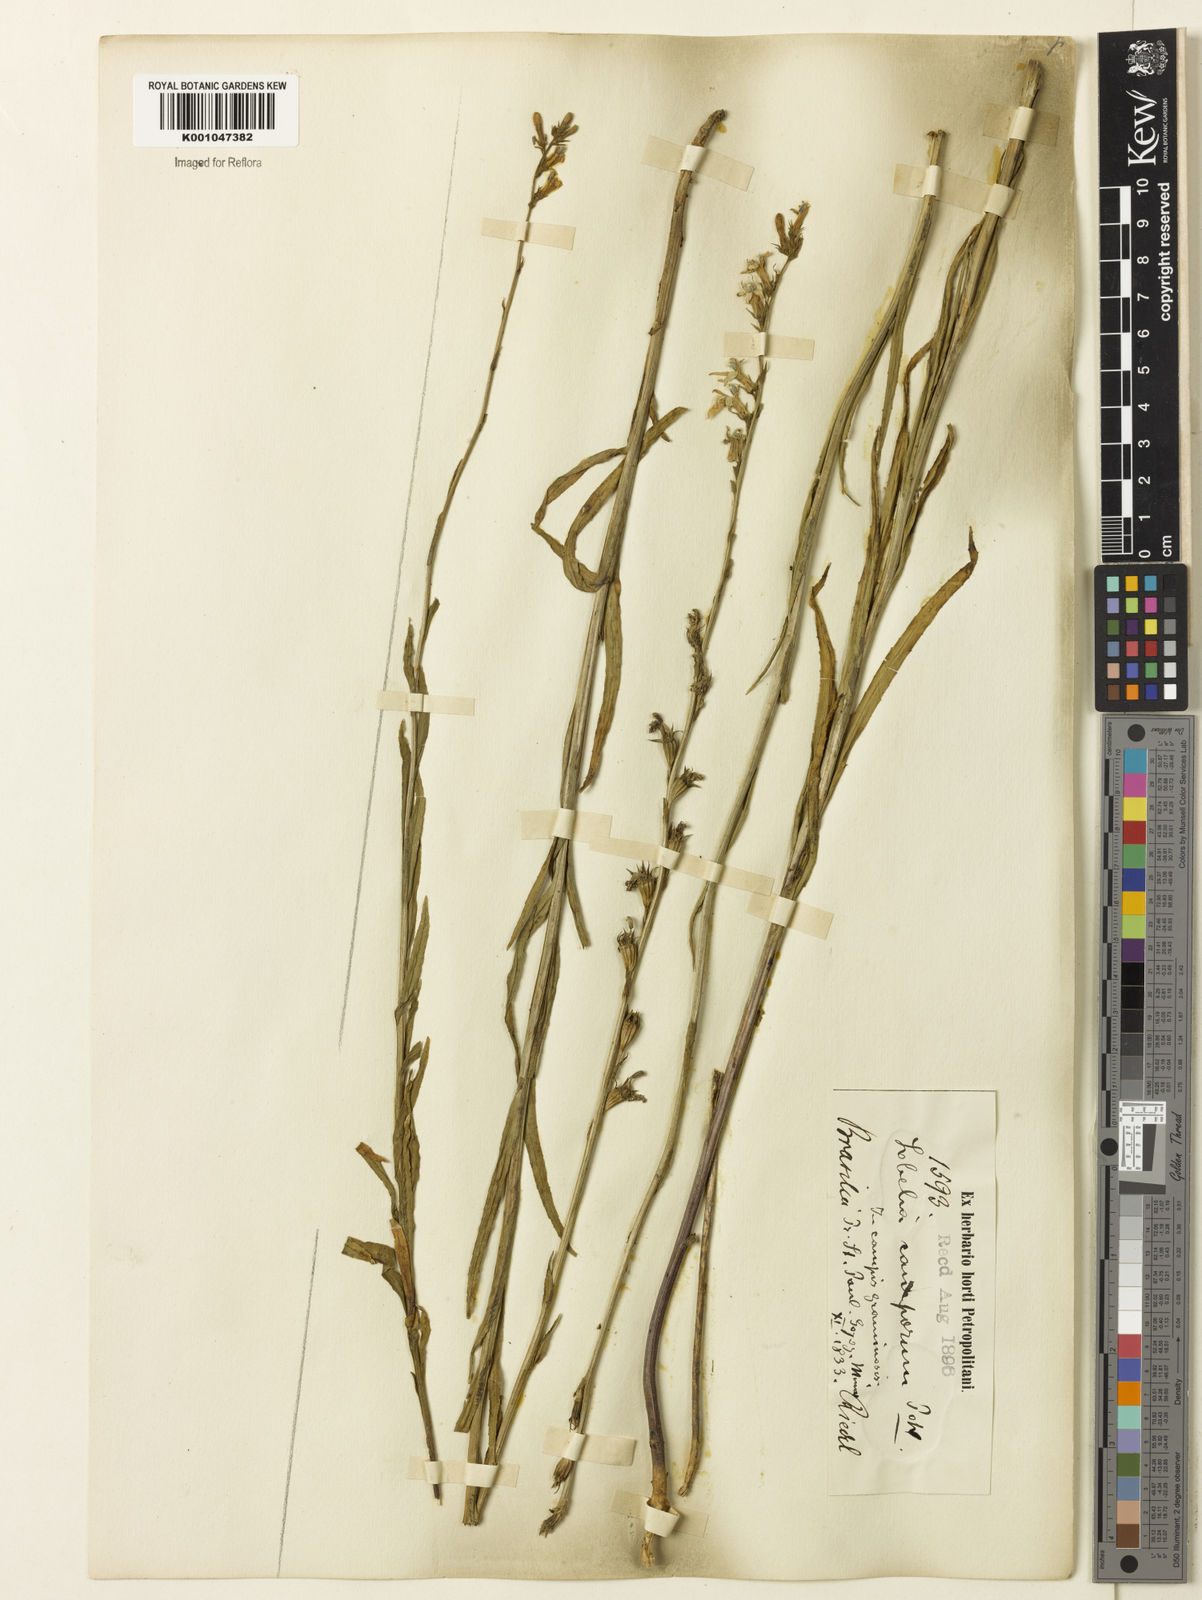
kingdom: Plantae
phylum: Tracheophyta
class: Magnoliopsida
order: Asterales
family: Campanulaceae
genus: Lobelia
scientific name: Lobelia camporum
